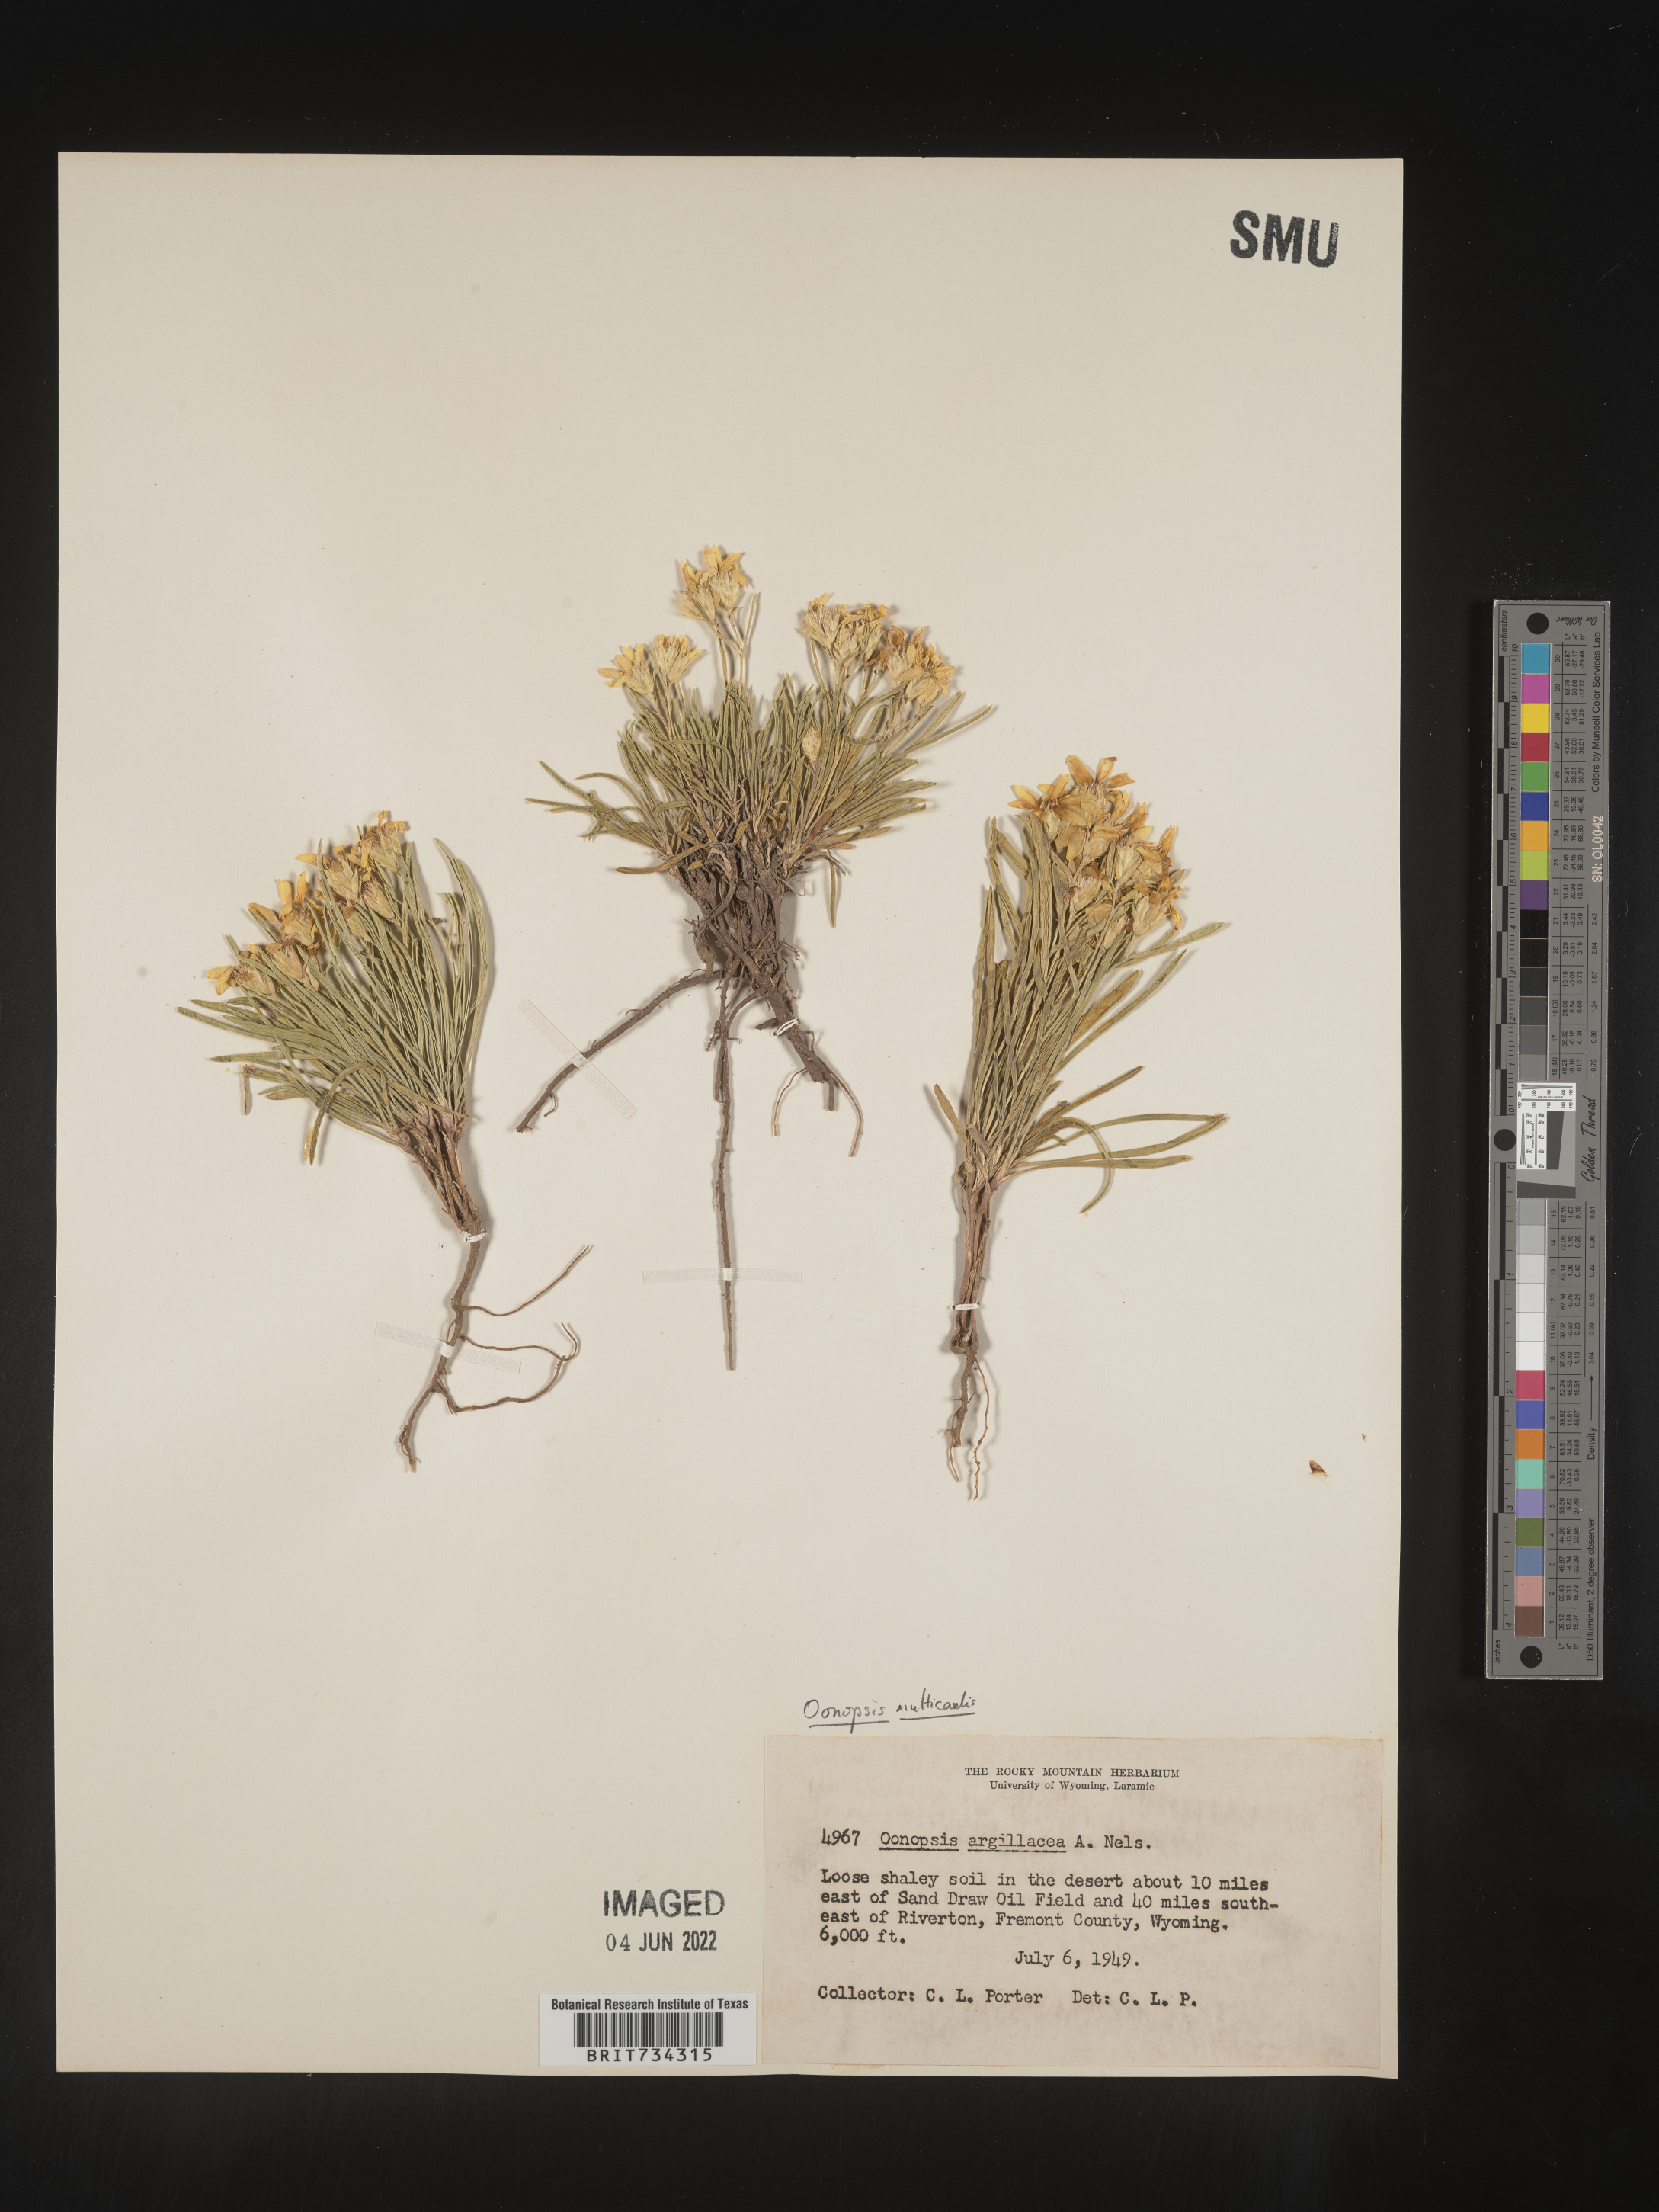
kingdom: Plantae
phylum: Tracheophyta
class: Magnoliopsida
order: Asterales
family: Asteraceae
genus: Oonopsis
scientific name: Oonopsis
